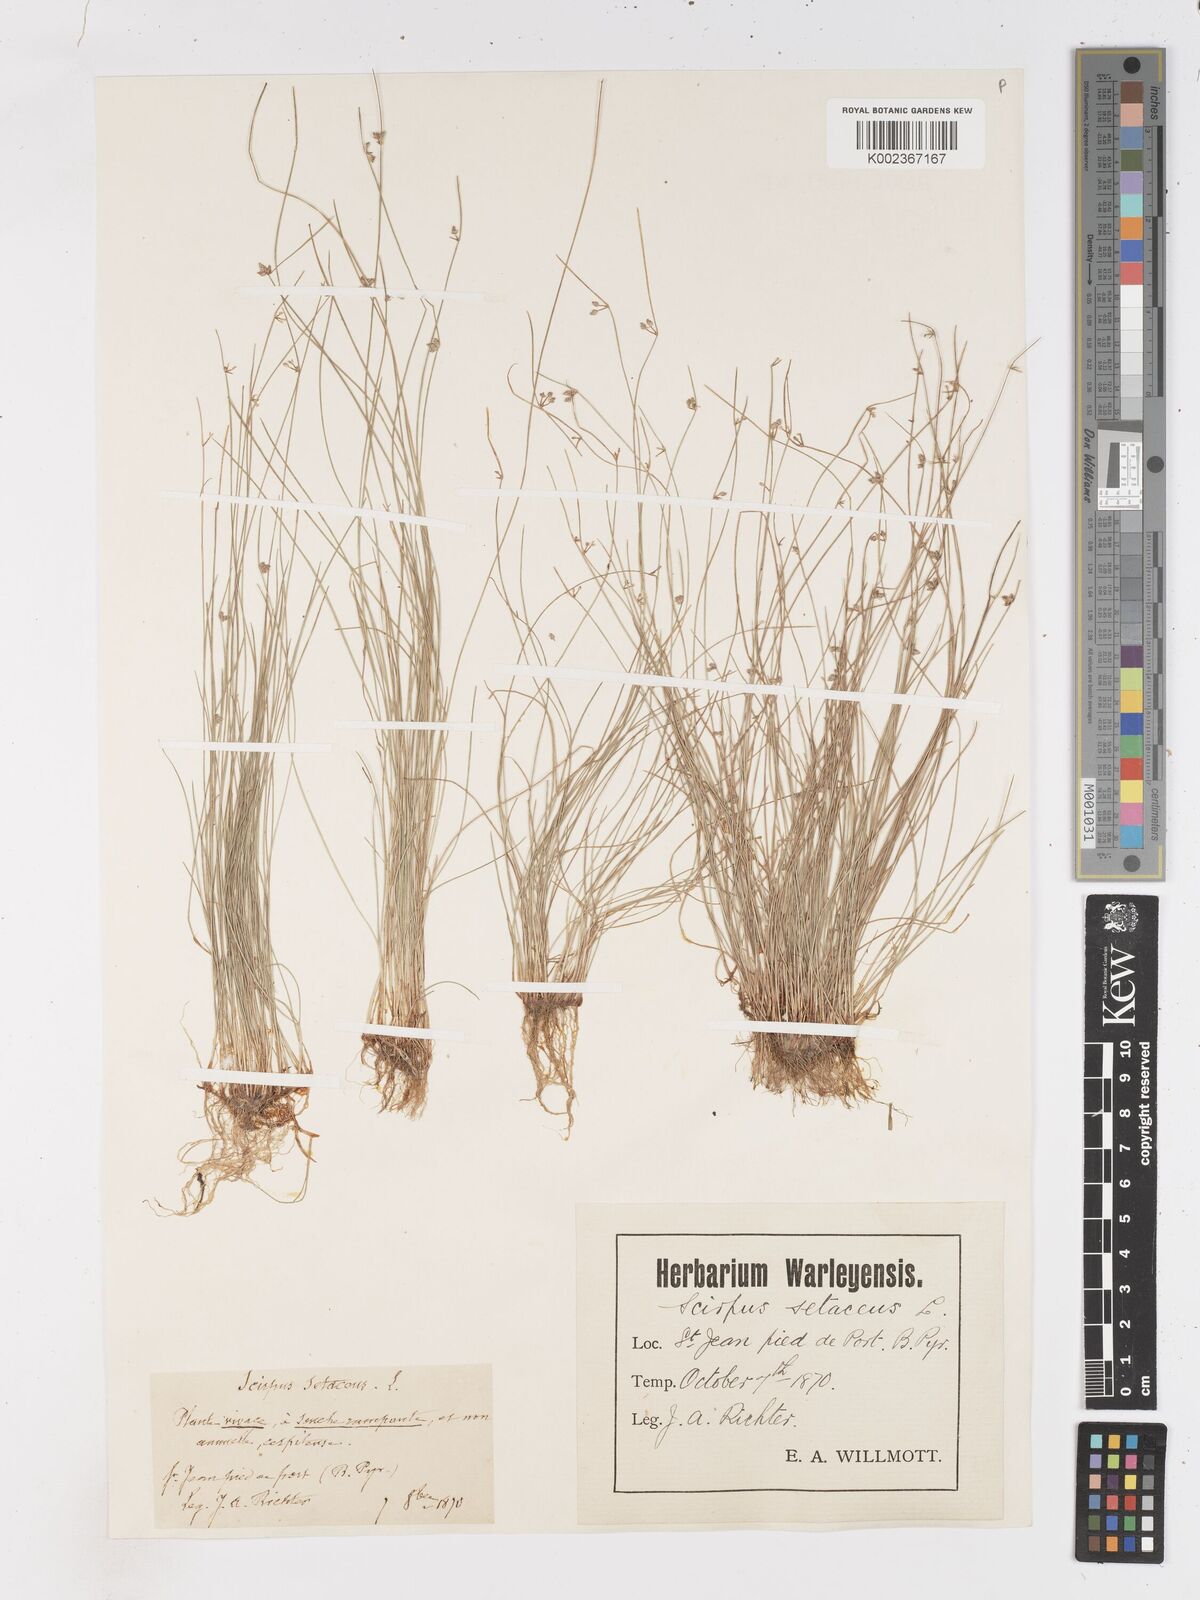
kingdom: Plantae
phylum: Tracheophyta
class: Liliopsida
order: Poales
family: Cyperaceae
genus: Isolepis
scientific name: Isolepis setacea
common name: Bristle club-rush
